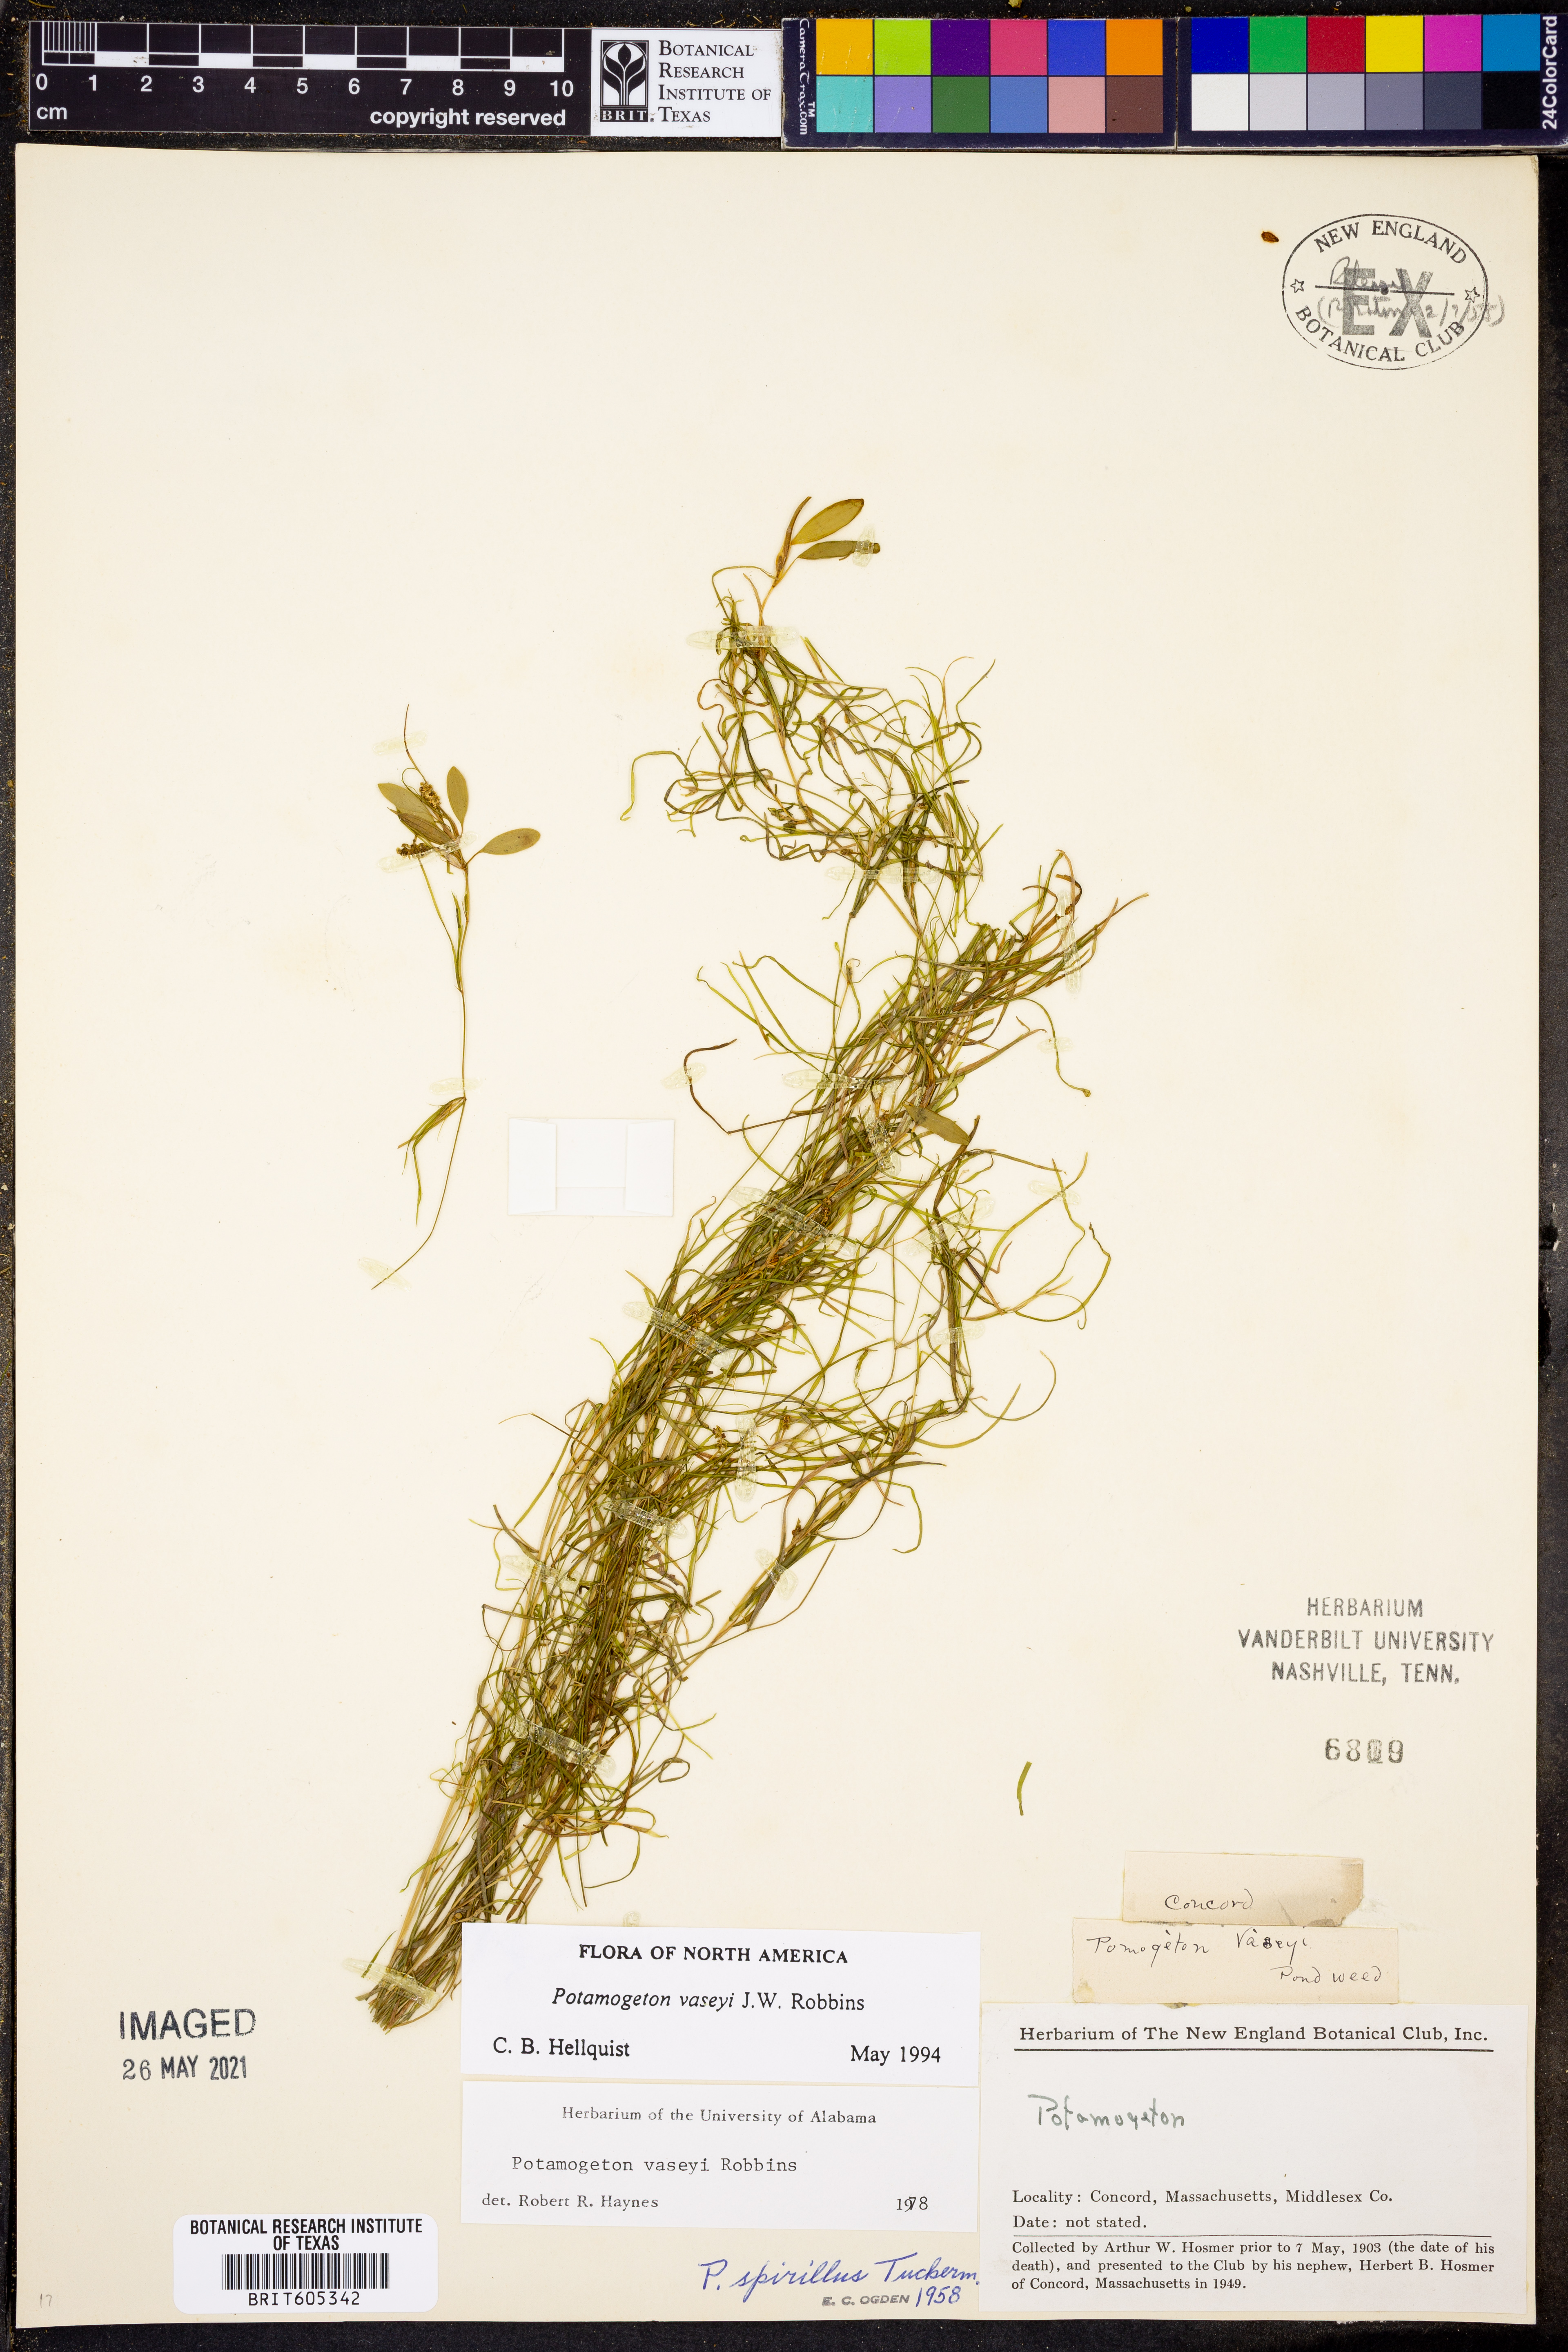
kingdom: Plantae
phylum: Tracheophyta
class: Liliopsida
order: Alismatales
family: Potamogetonaceae
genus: Potamogeton
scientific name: Potamogeton vaseyi
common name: Vasey's pondweed
